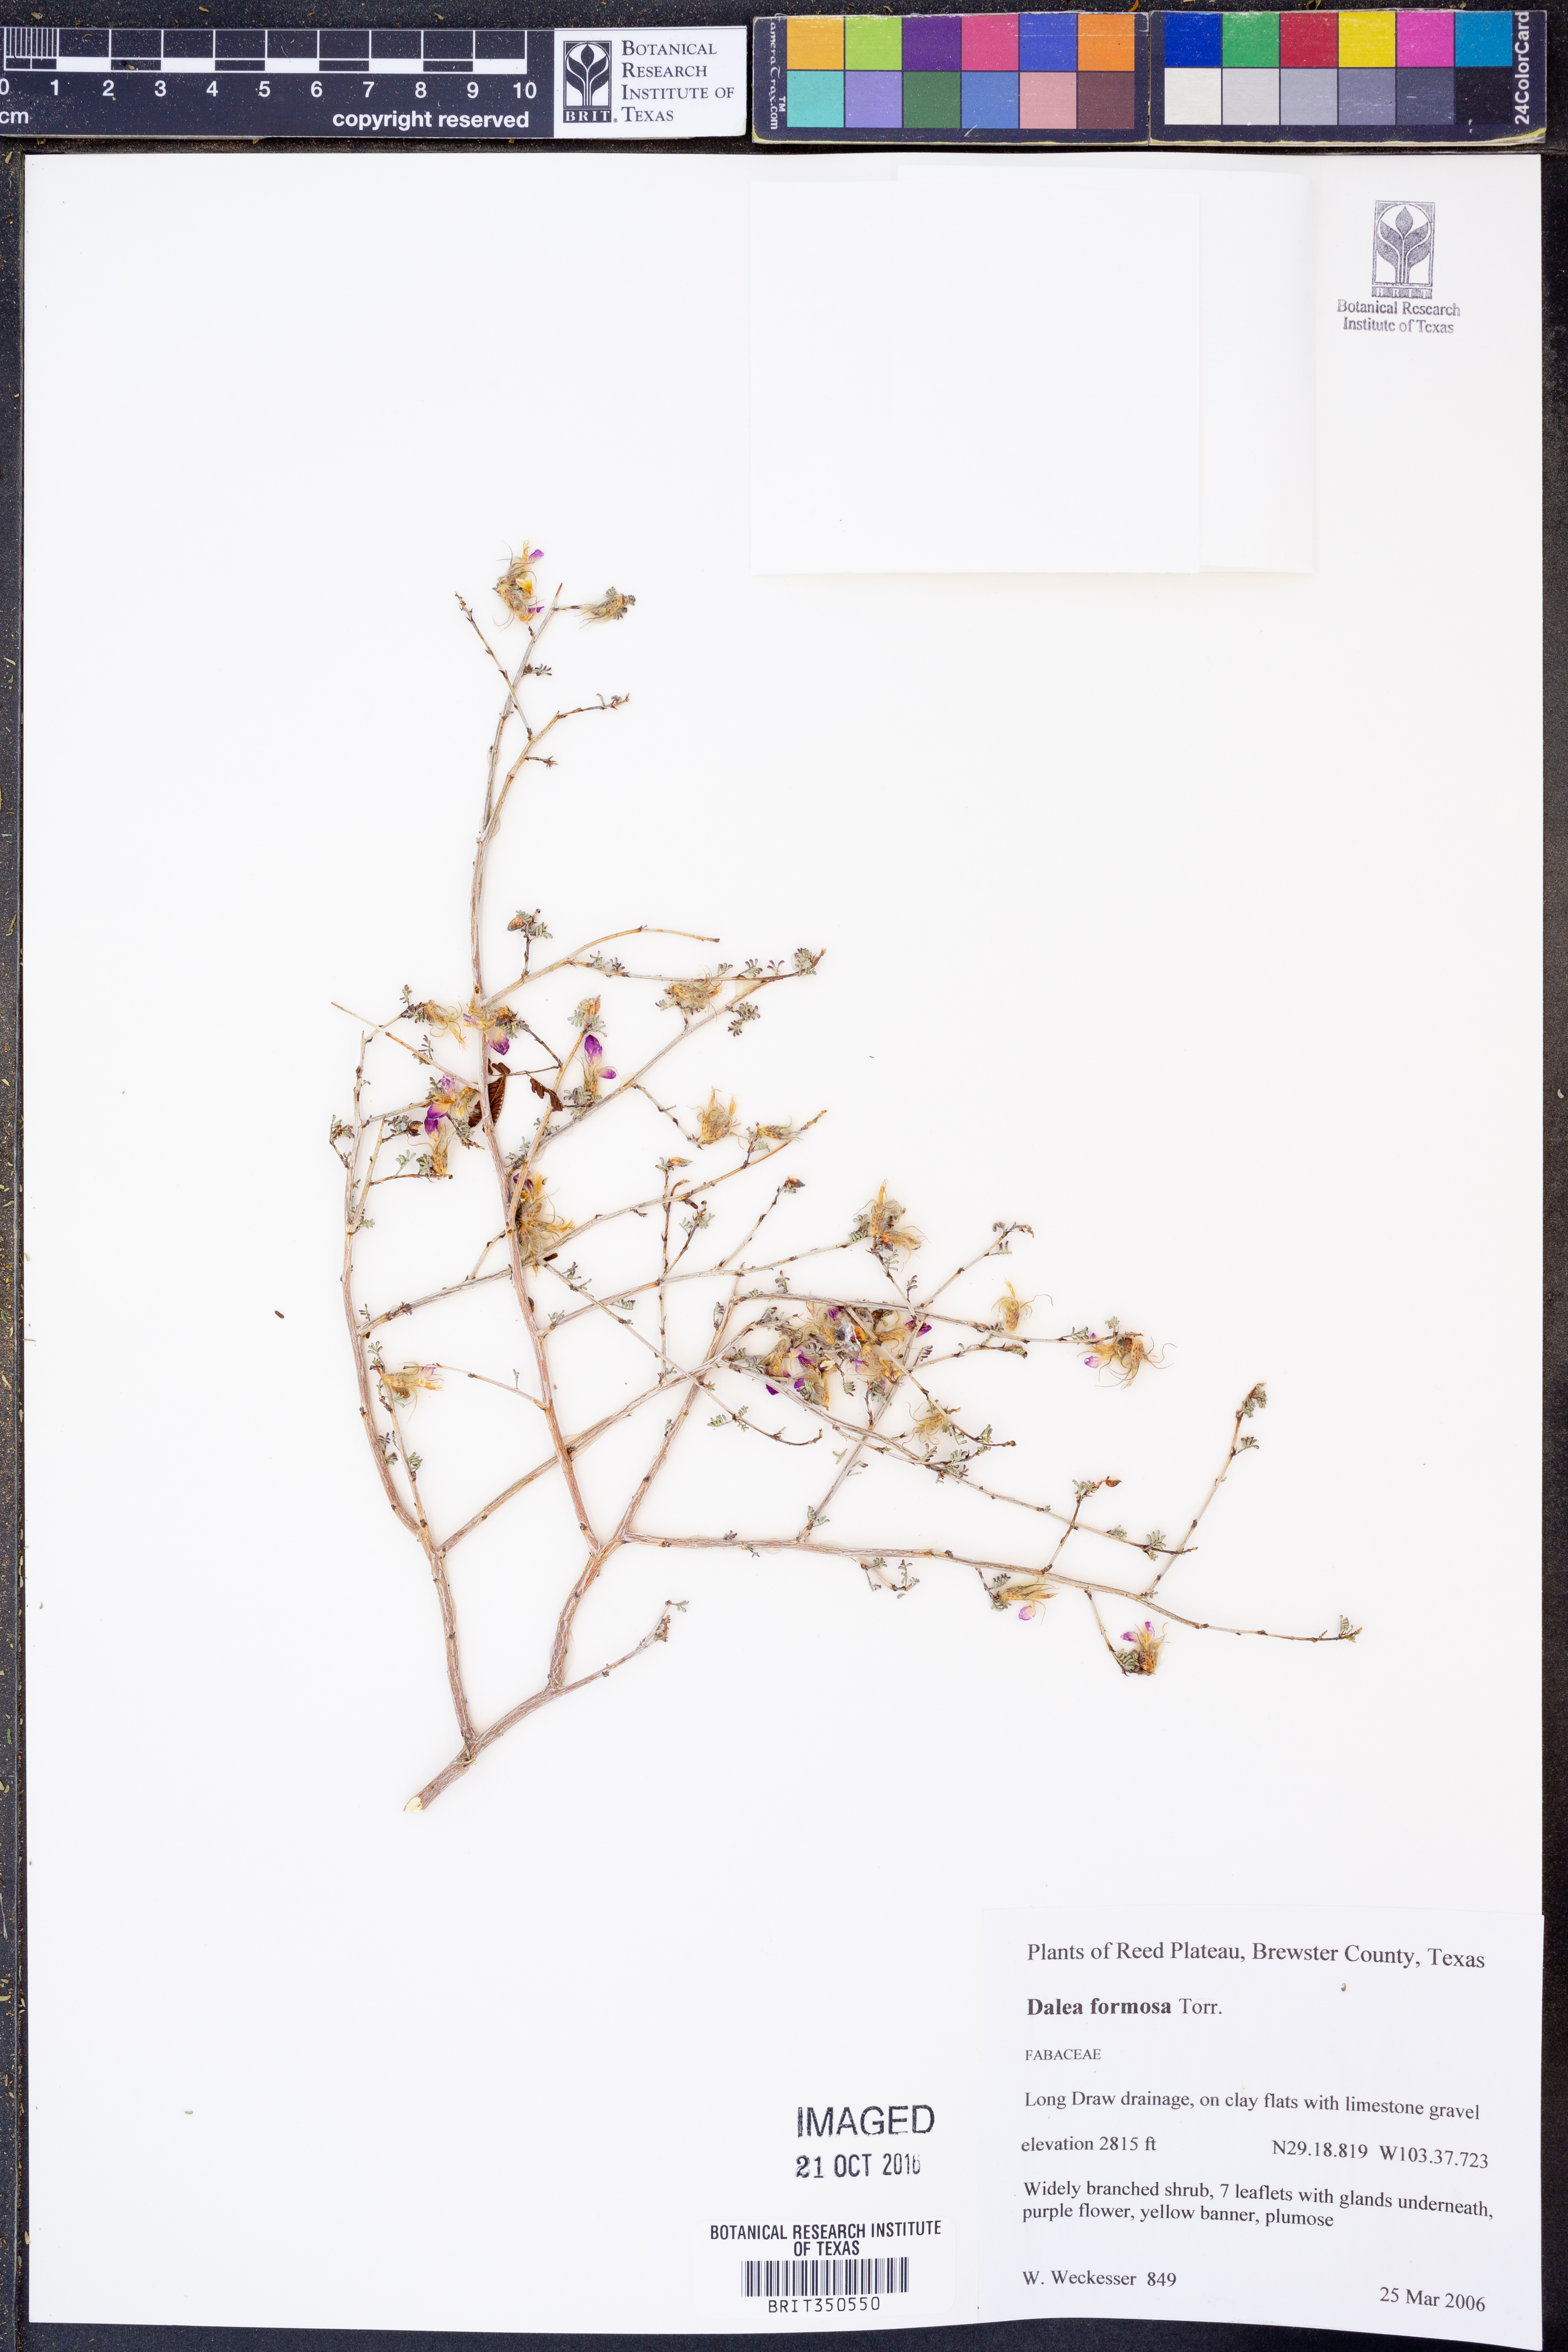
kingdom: Plantae
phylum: Tracheophyta
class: Magnoliopsida
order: Fabales
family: Fabaceae
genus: Dalea
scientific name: Dalea formosa
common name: Feather-plume dalea
